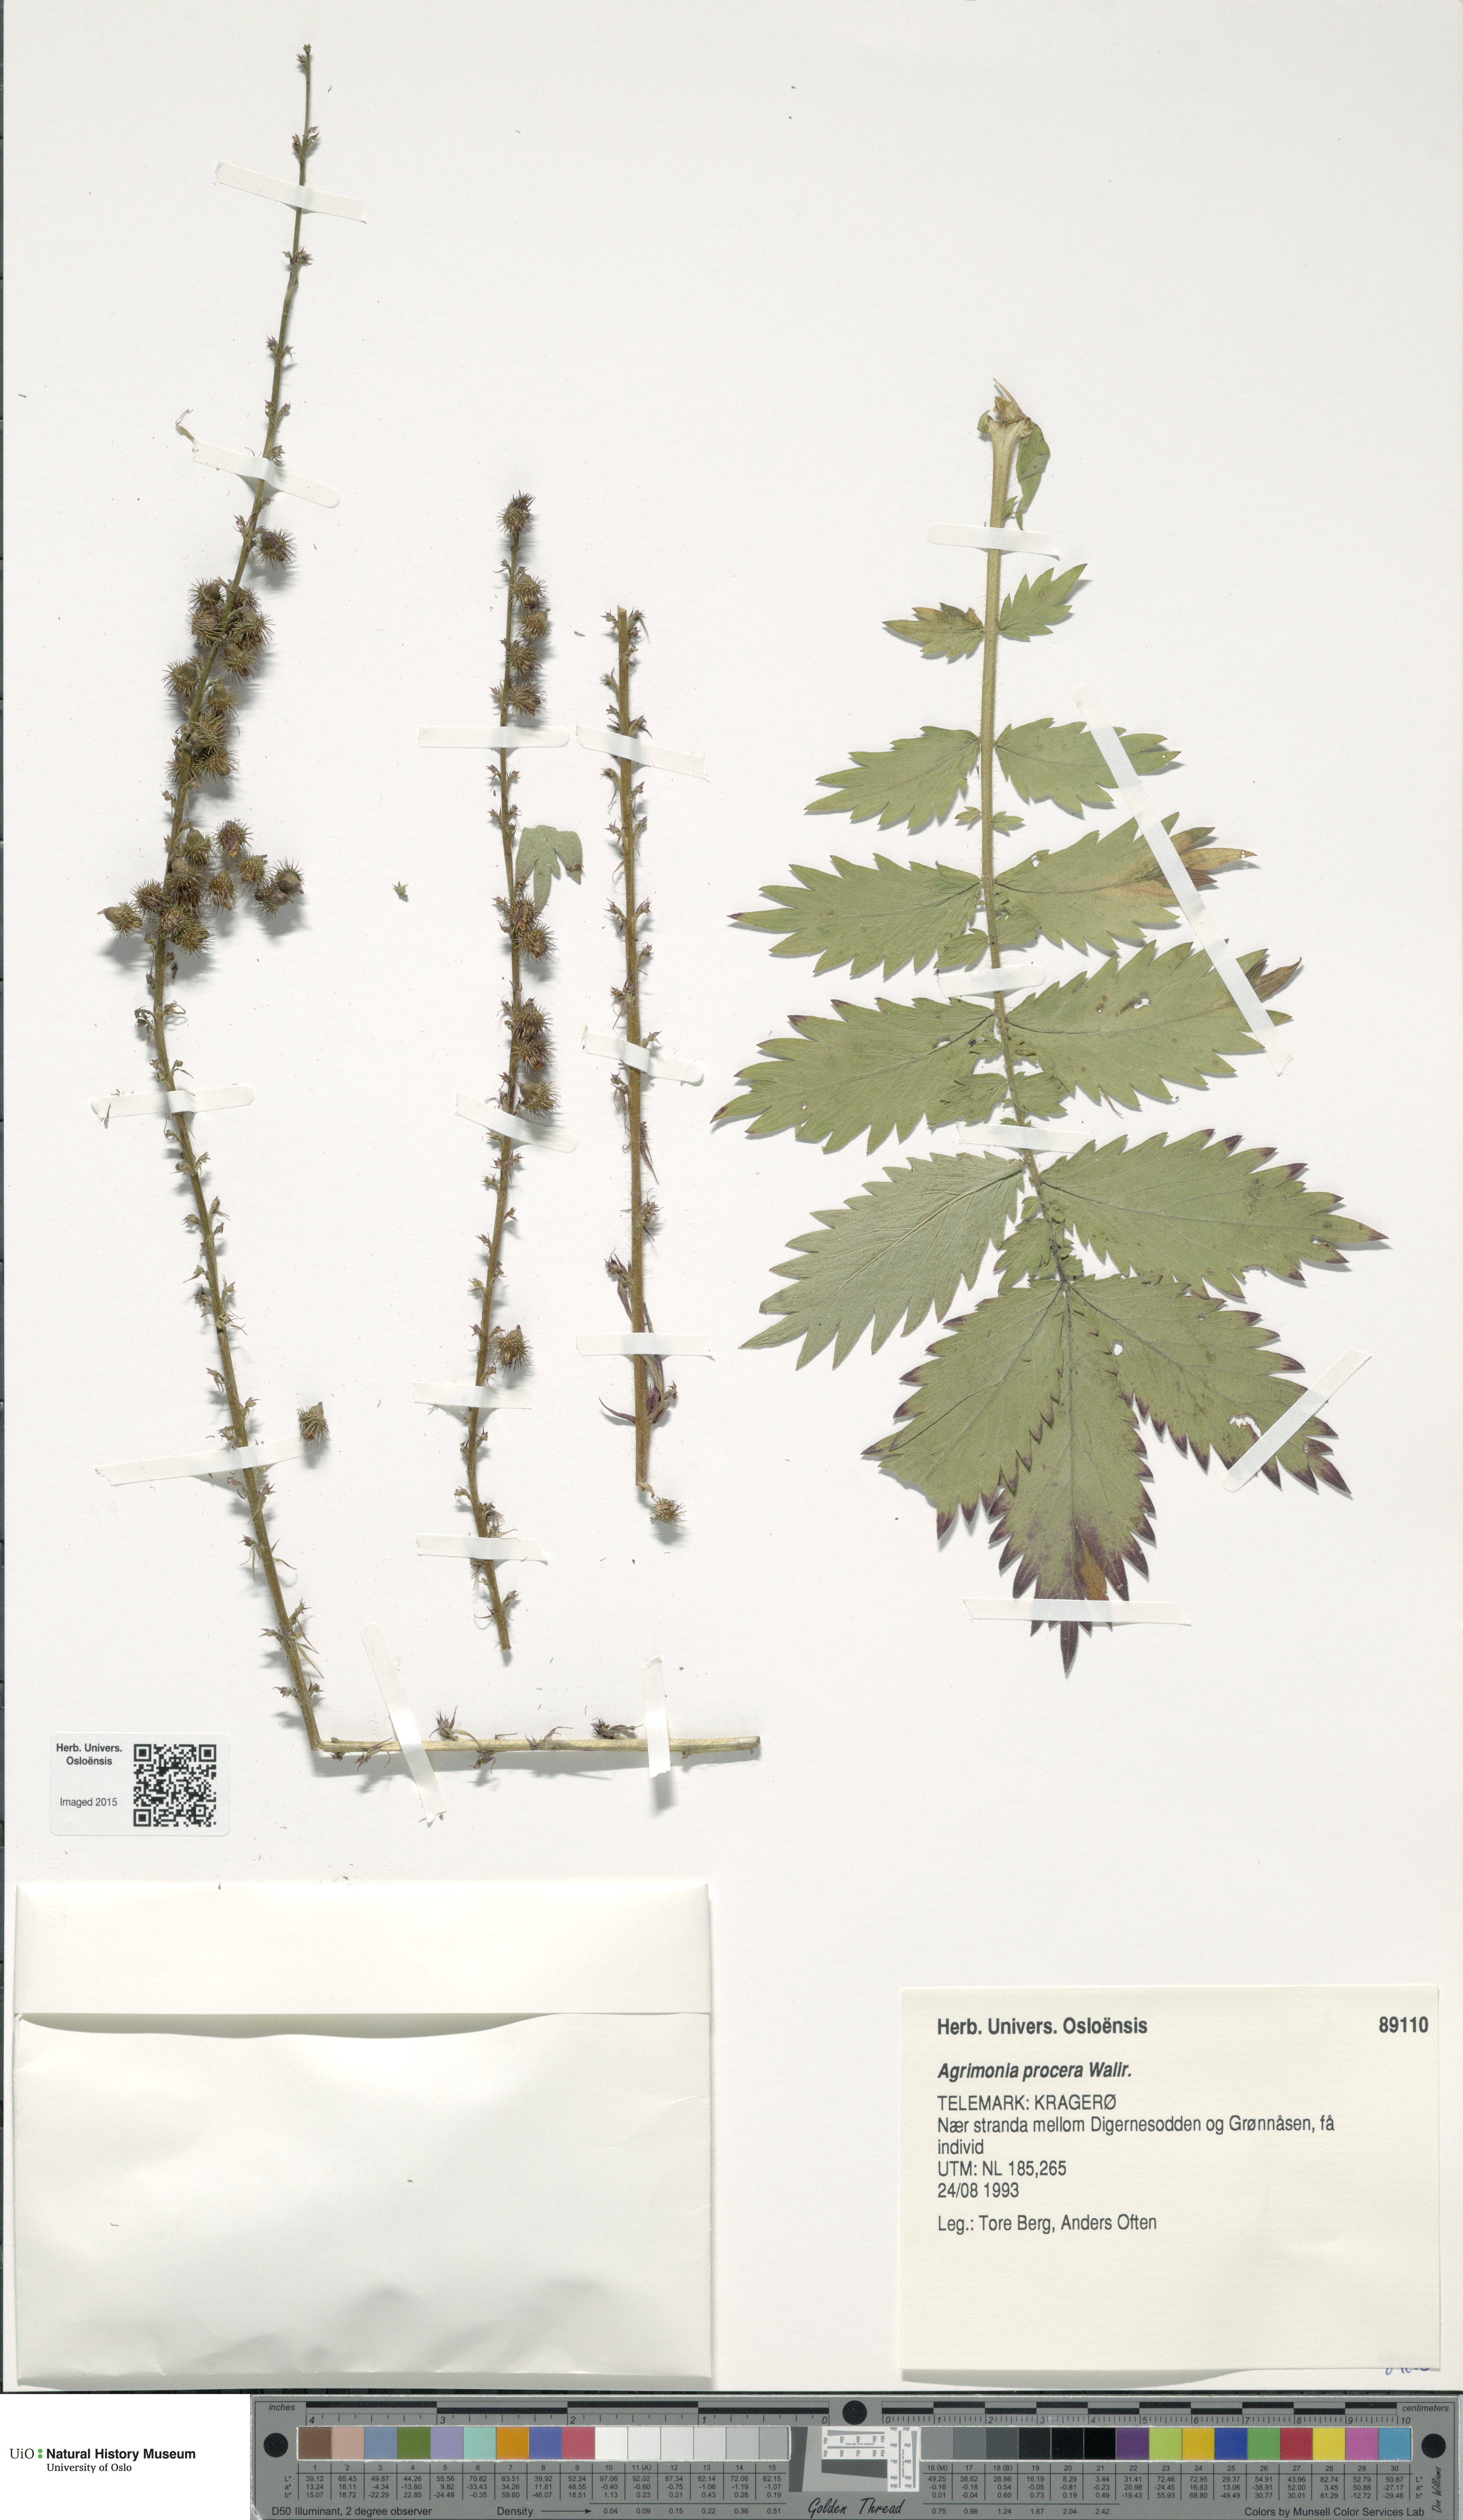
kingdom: Plantae
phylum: Tracheophyta
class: Magnoliopsida
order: Rosales
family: Rosaceae
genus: Agrimonia
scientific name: Agrimonia procera
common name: Fragrant agrimony
